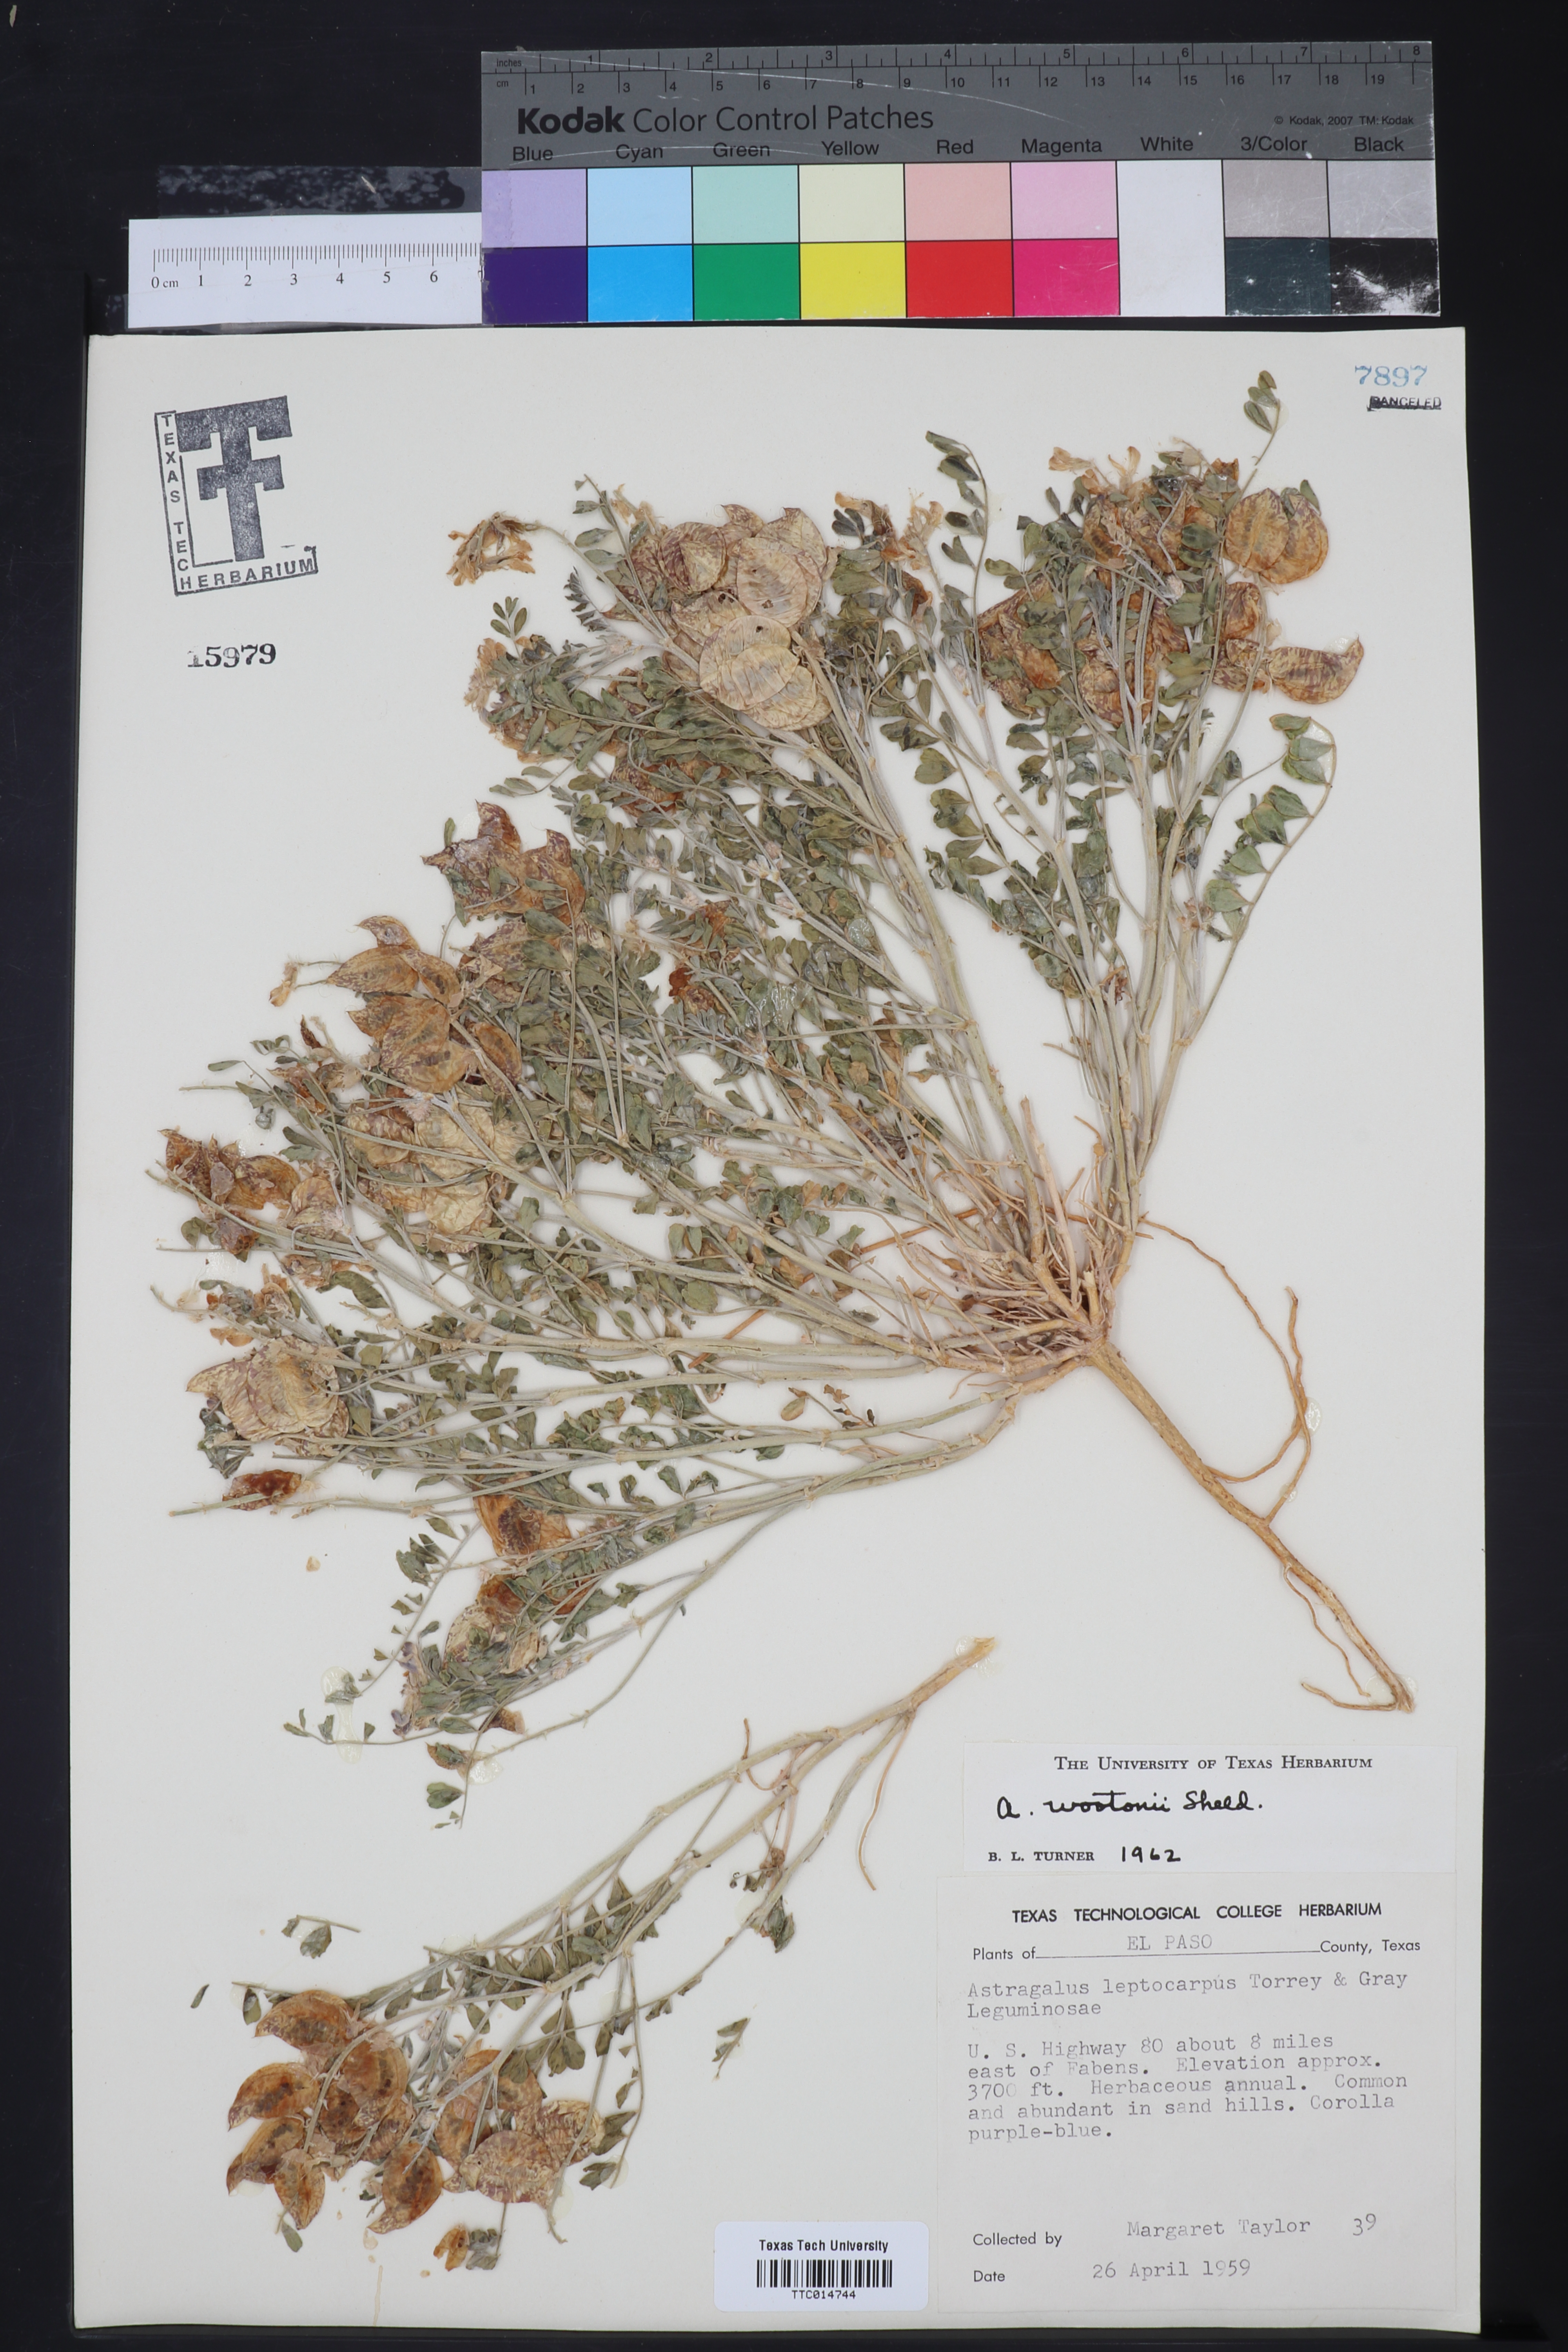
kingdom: Plantae
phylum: Tracheophyta
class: Magnoliopsida
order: Fabales
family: Fabaceae
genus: Astragalus
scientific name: Astragalus wootonii
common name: Wooton's milk-vetch
